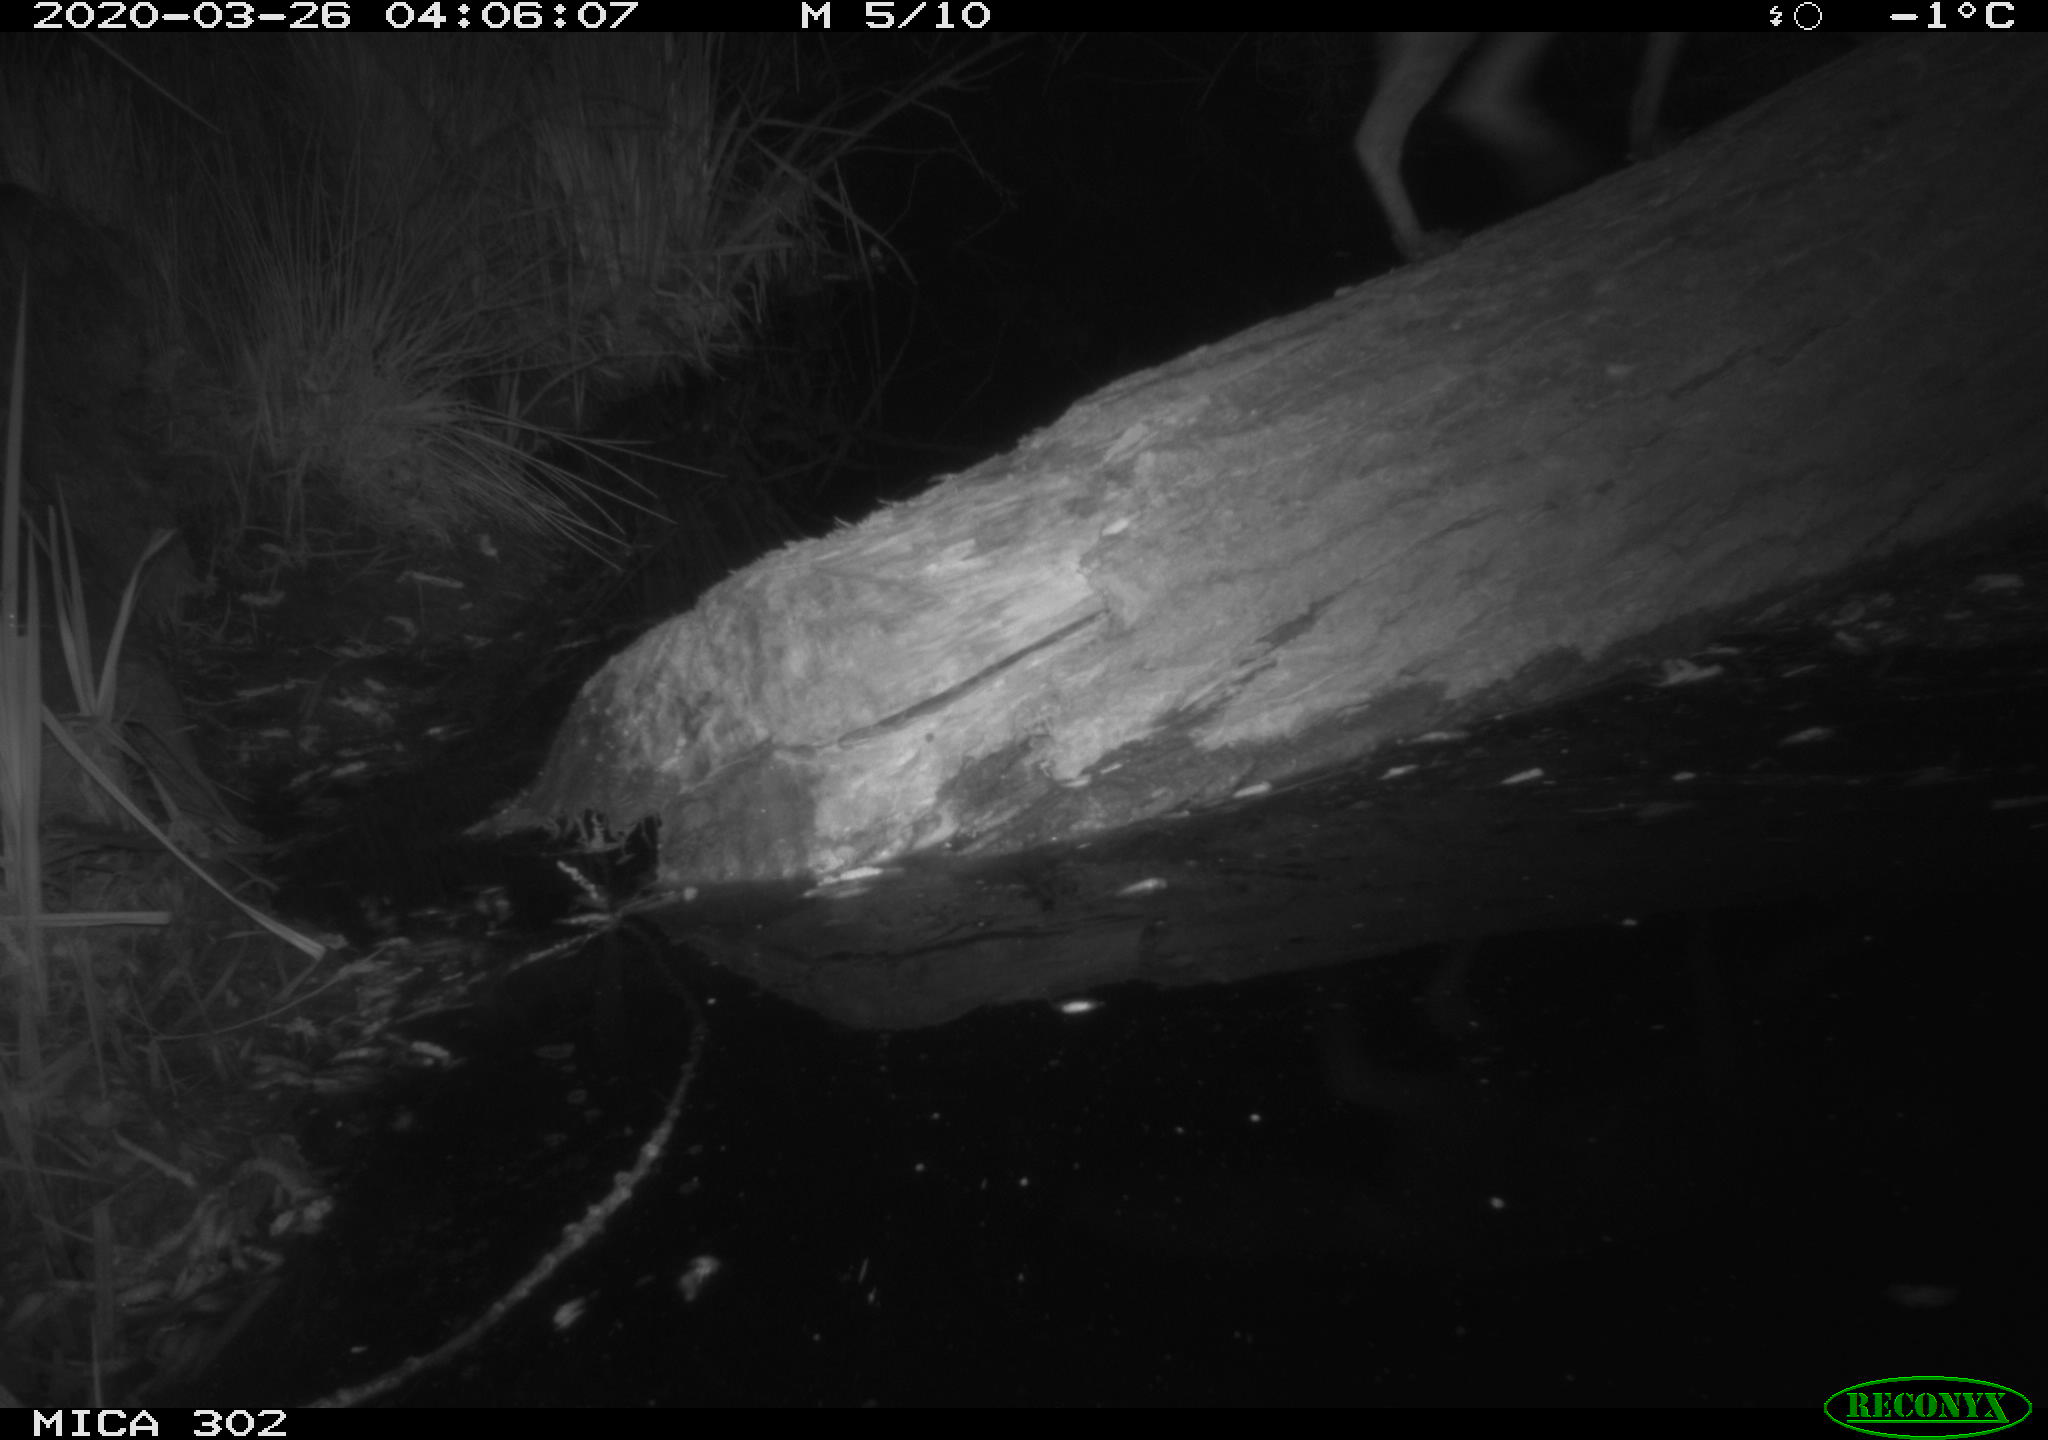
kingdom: Animalia
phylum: Chordata
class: Mammalia
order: Carnivora
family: Canidae
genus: Vulpes
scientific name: Vulpes vulpes
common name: Red fox
